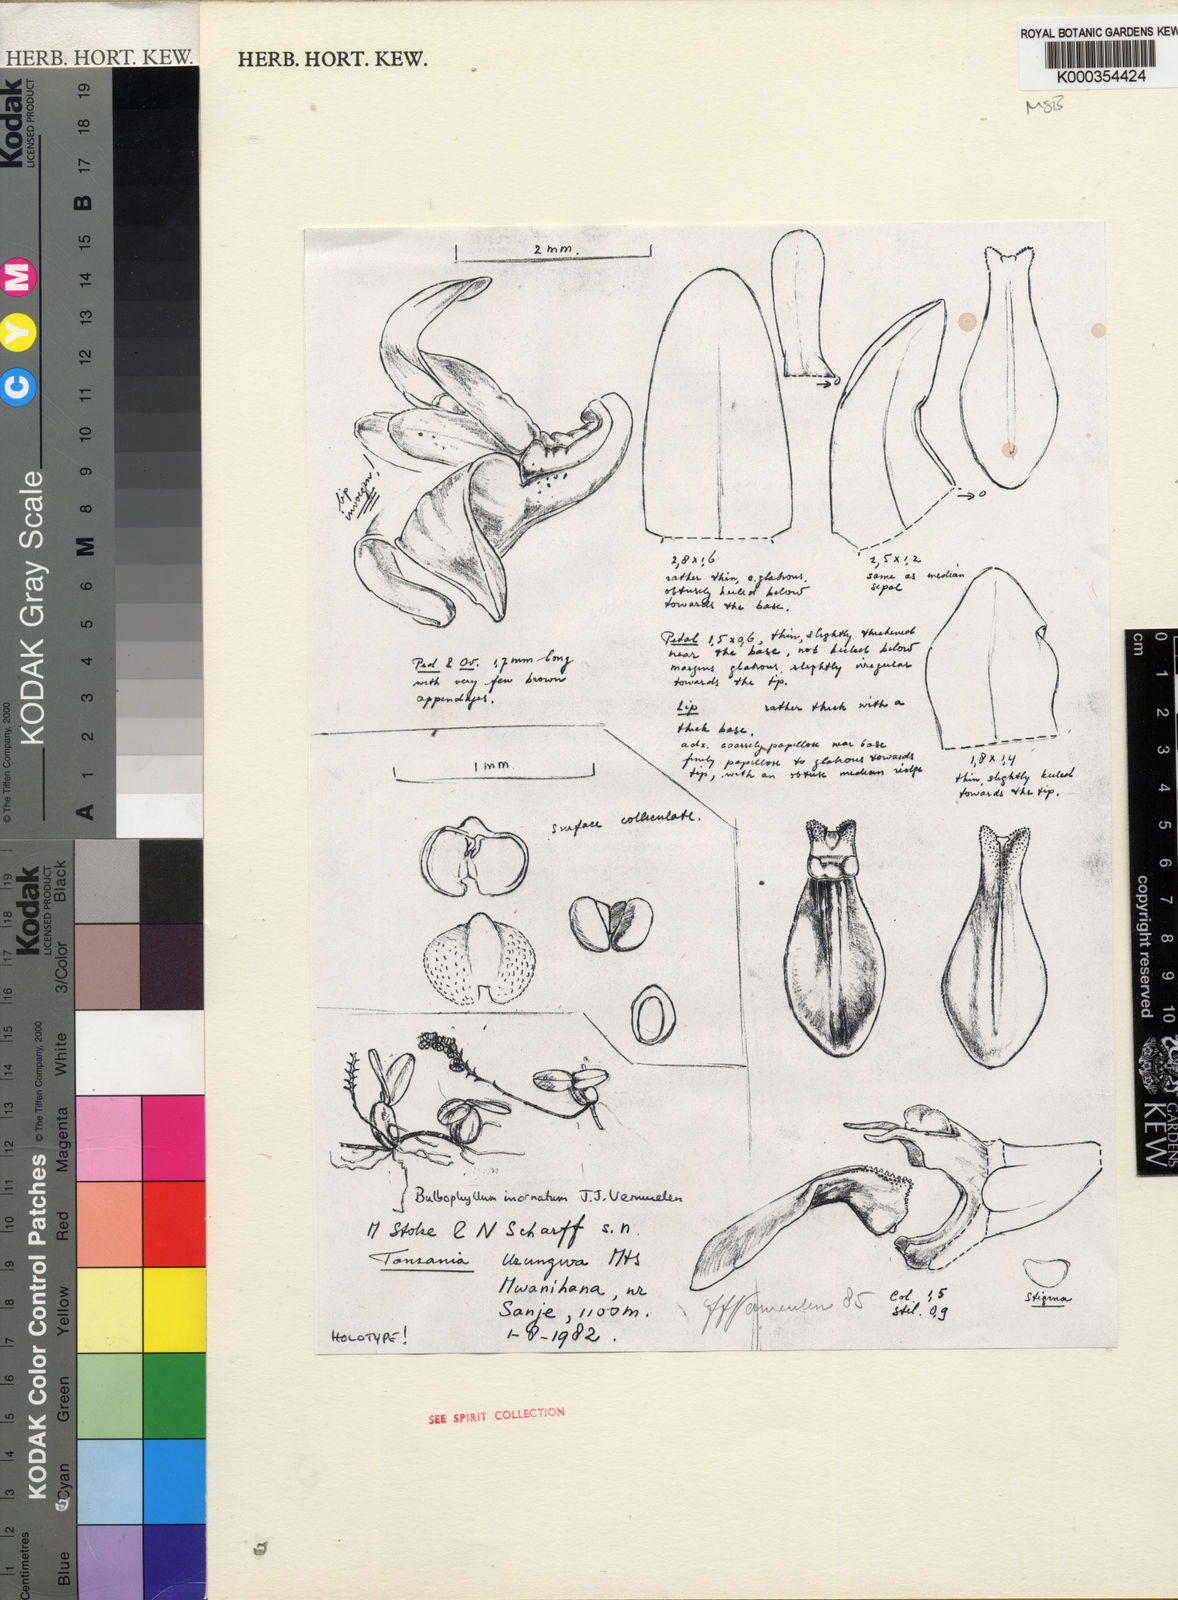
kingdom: Plantae
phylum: Tracheophyta
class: Liliopsida
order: Asparagales
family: Orchidaceae
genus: Bulbophyllum
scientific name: Bulbophyllum inornatum
